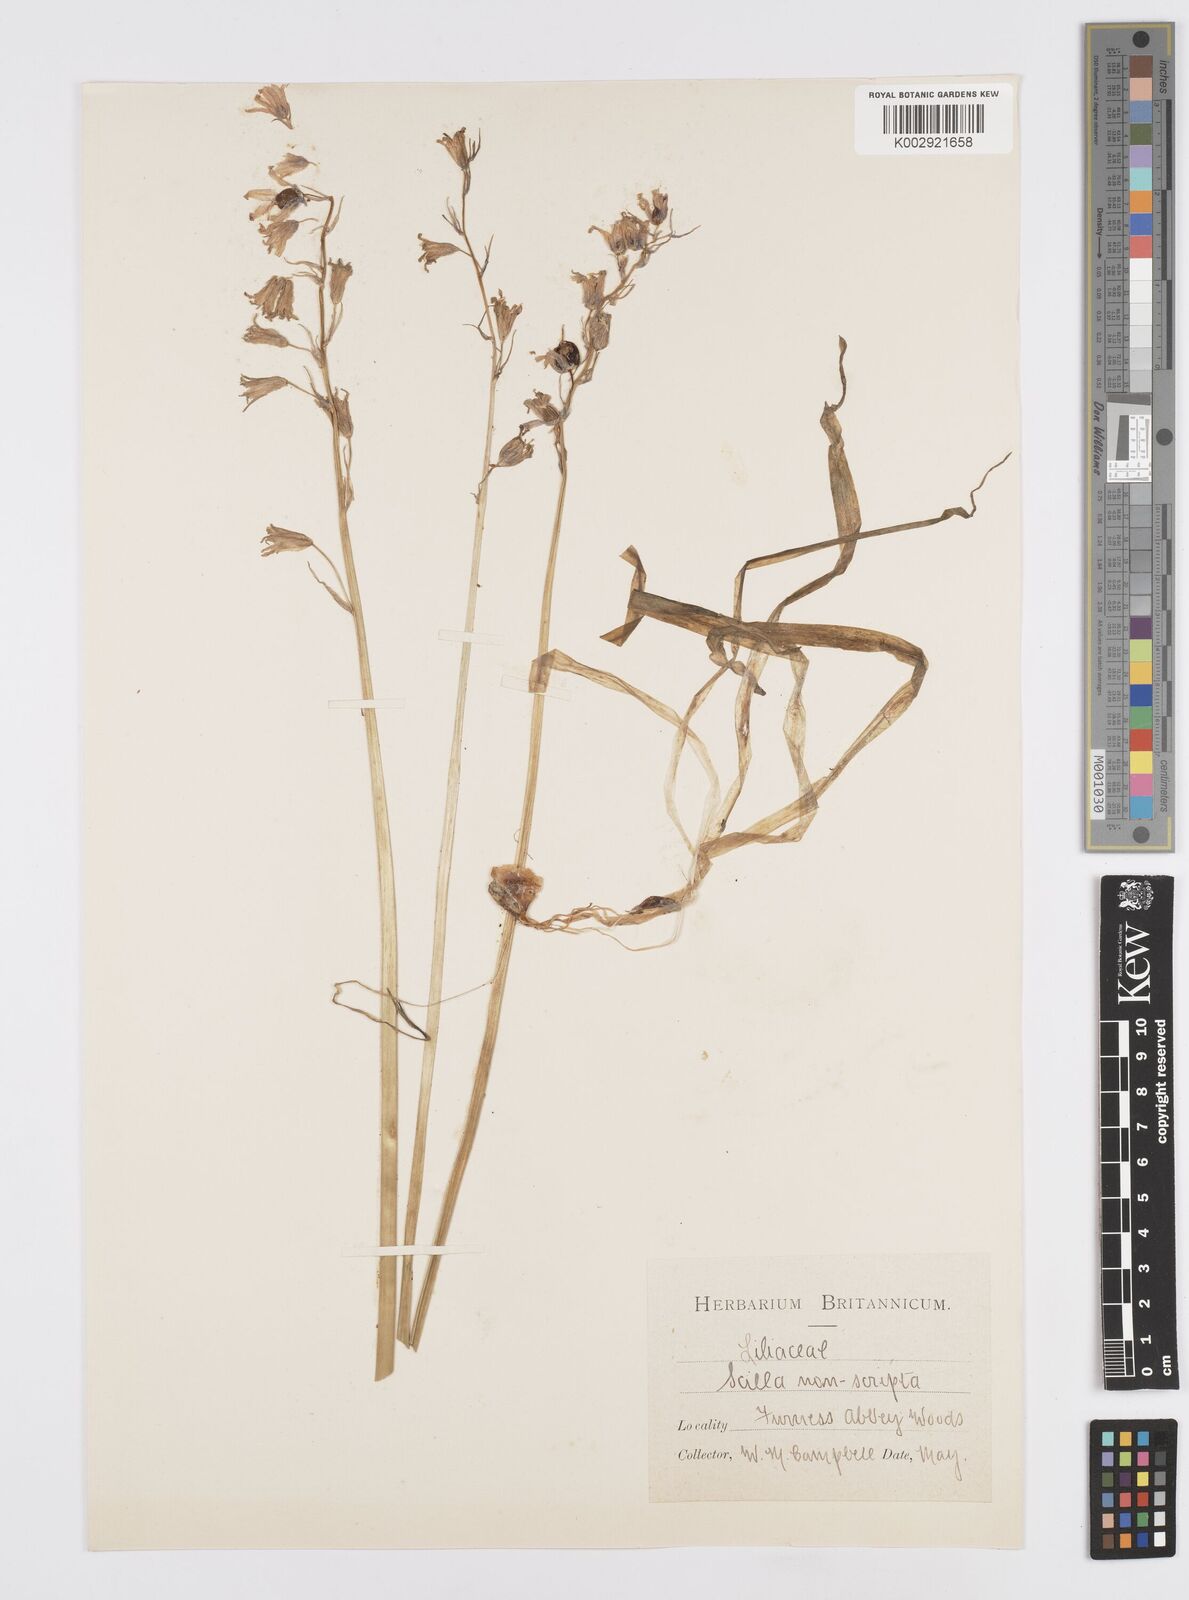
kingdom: Plantae
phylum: Tracheophyta
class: Liliopsida
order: Asparagales
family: Asparagaceae
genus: Hyacinthoides
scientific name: Hyacinthoides non-scripta
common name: Bluebell
